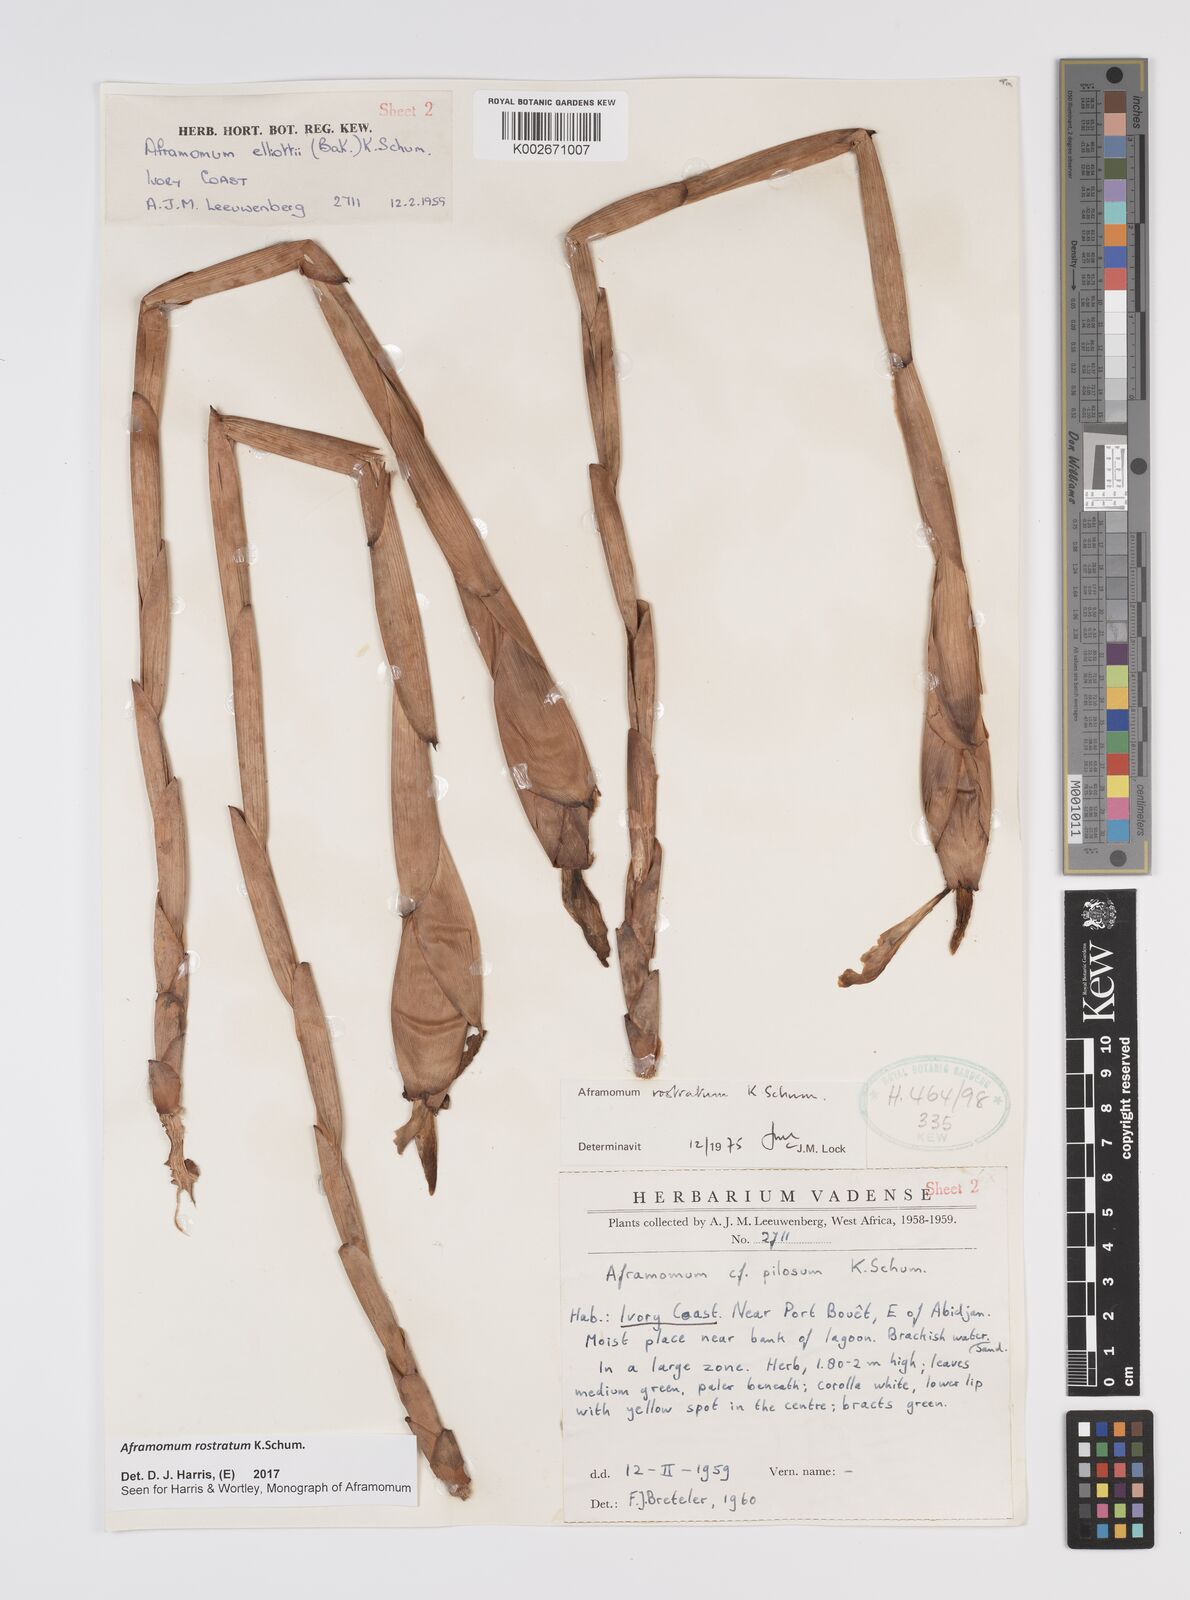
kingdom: Plantae
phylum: Tracheophyta
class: Liliopsida
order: Zingiberales
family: Zingiberaceae
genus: Aframomum
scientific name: Aframomum rostratum
